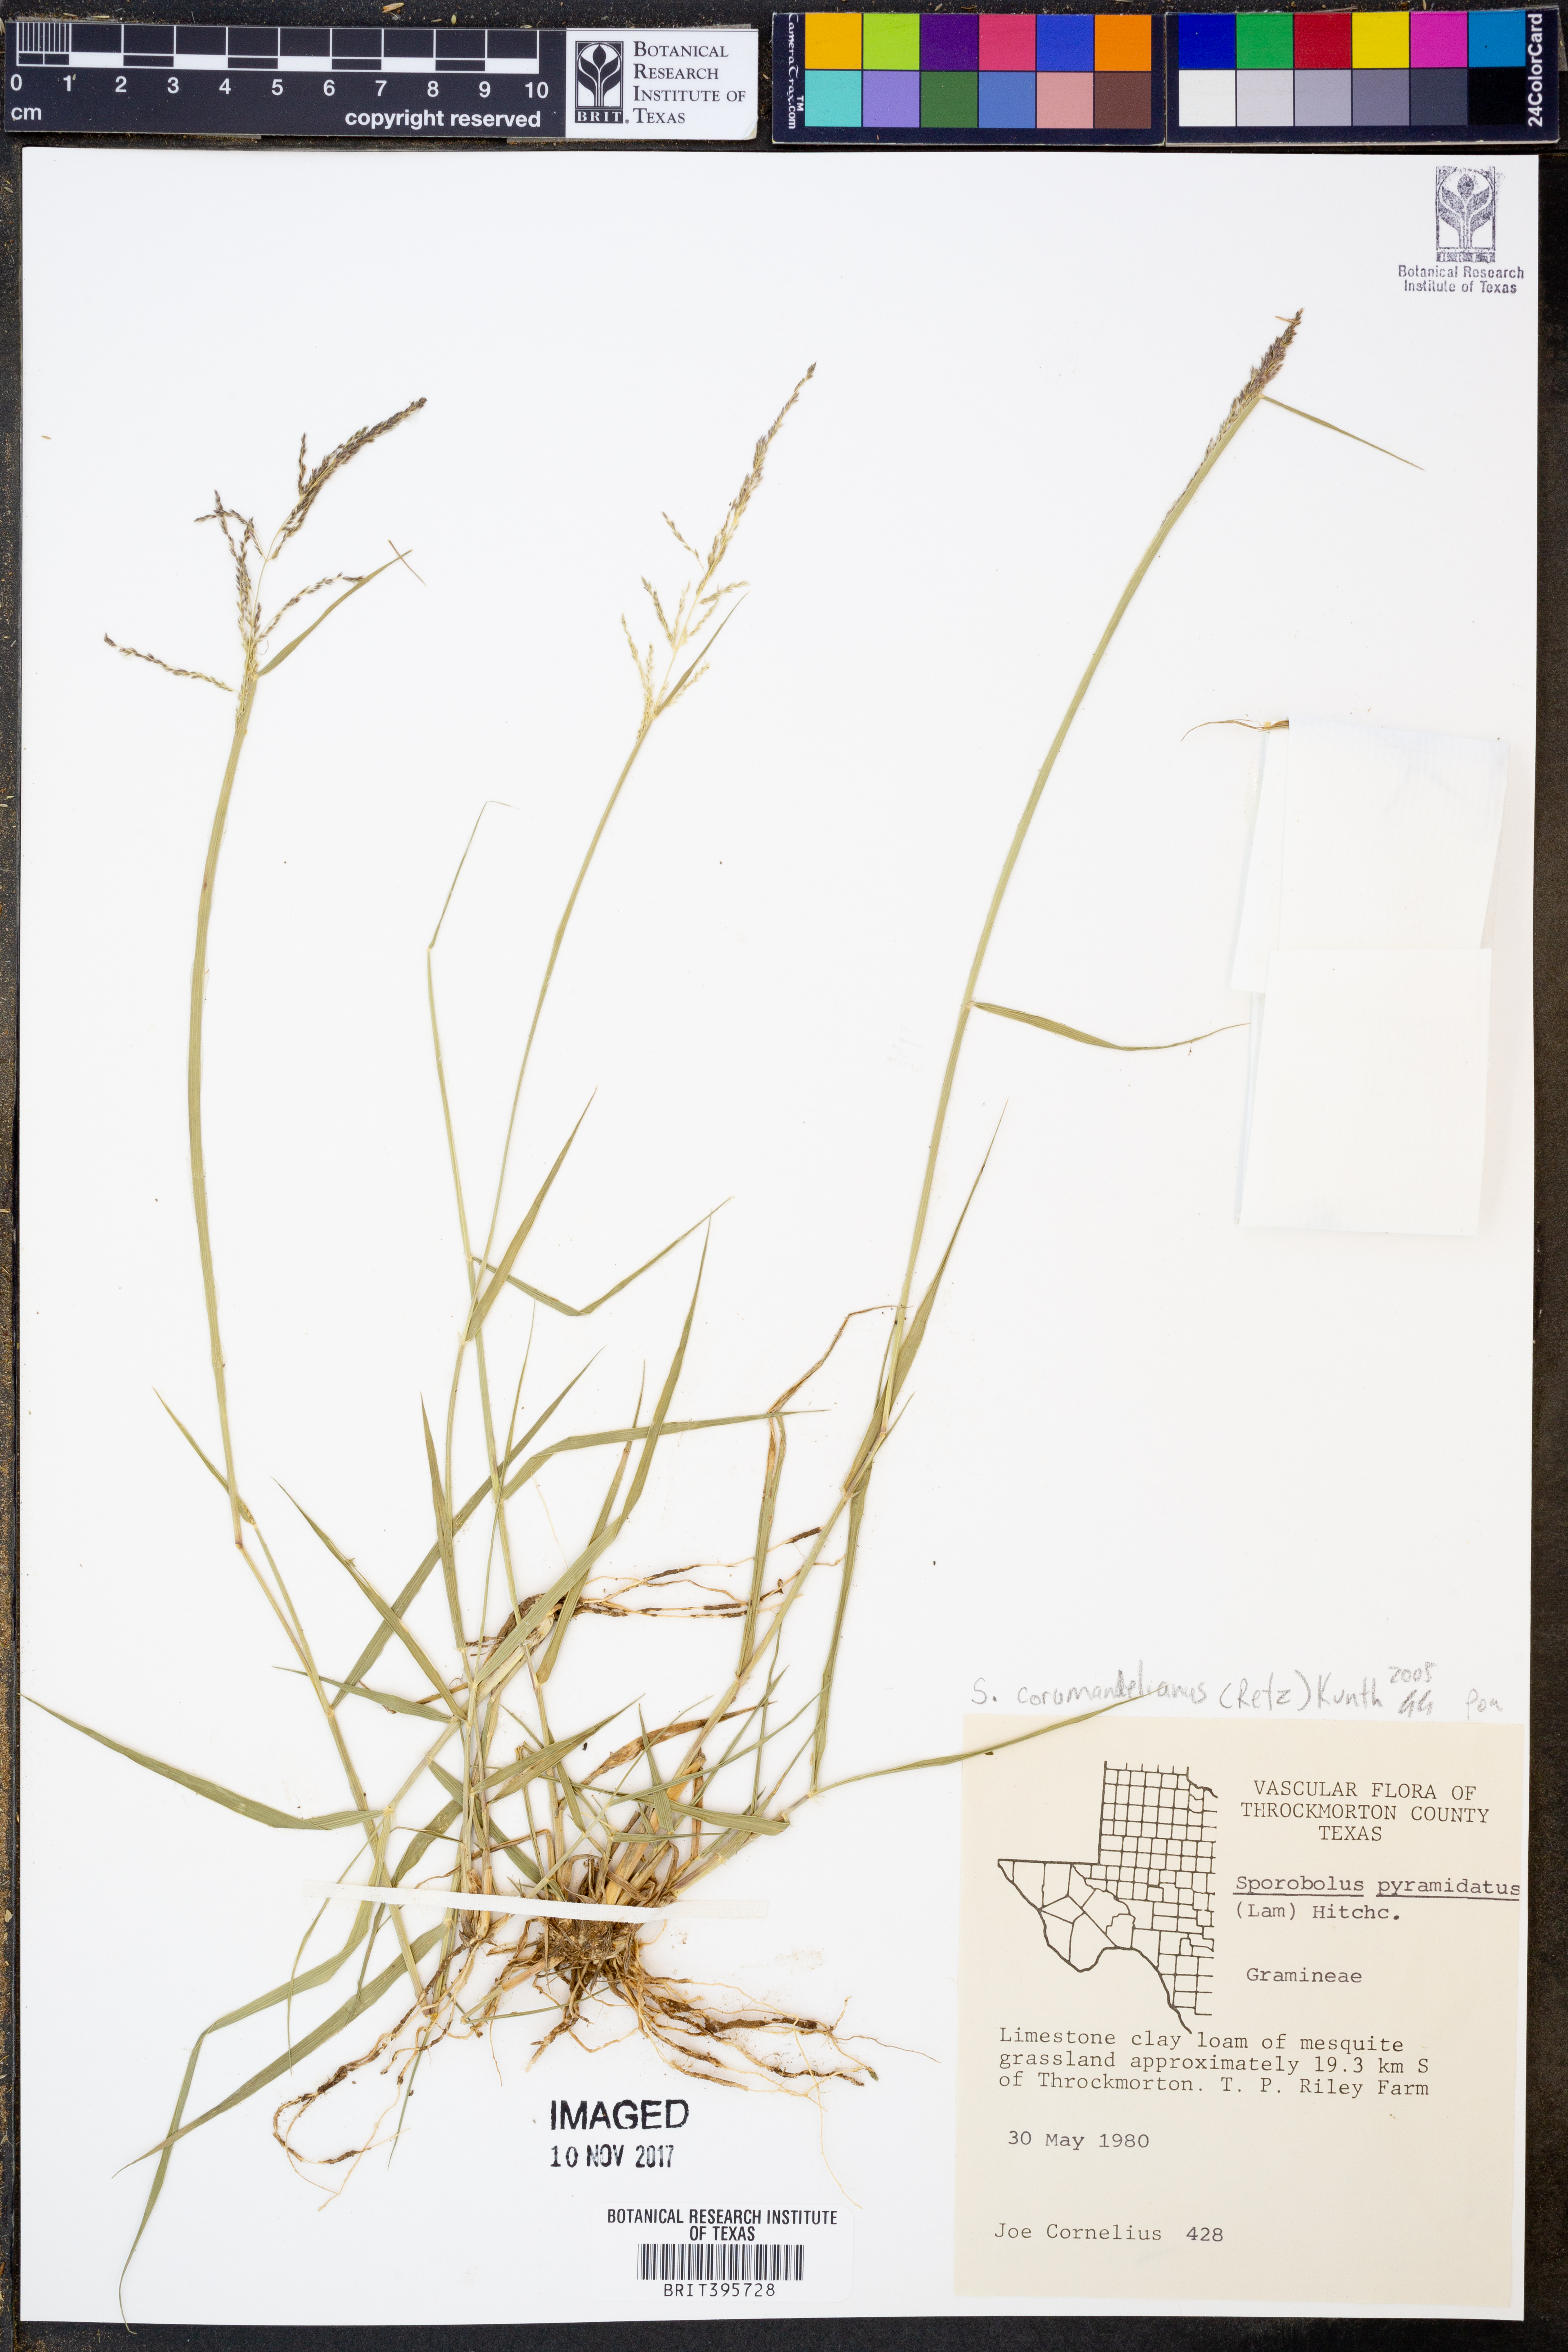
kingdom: Plantae
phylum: Tracheophyta
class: Liliopsida
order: Poales
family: Poaceae
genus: Sporobolus
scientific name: Sporobolus coromandelianus
